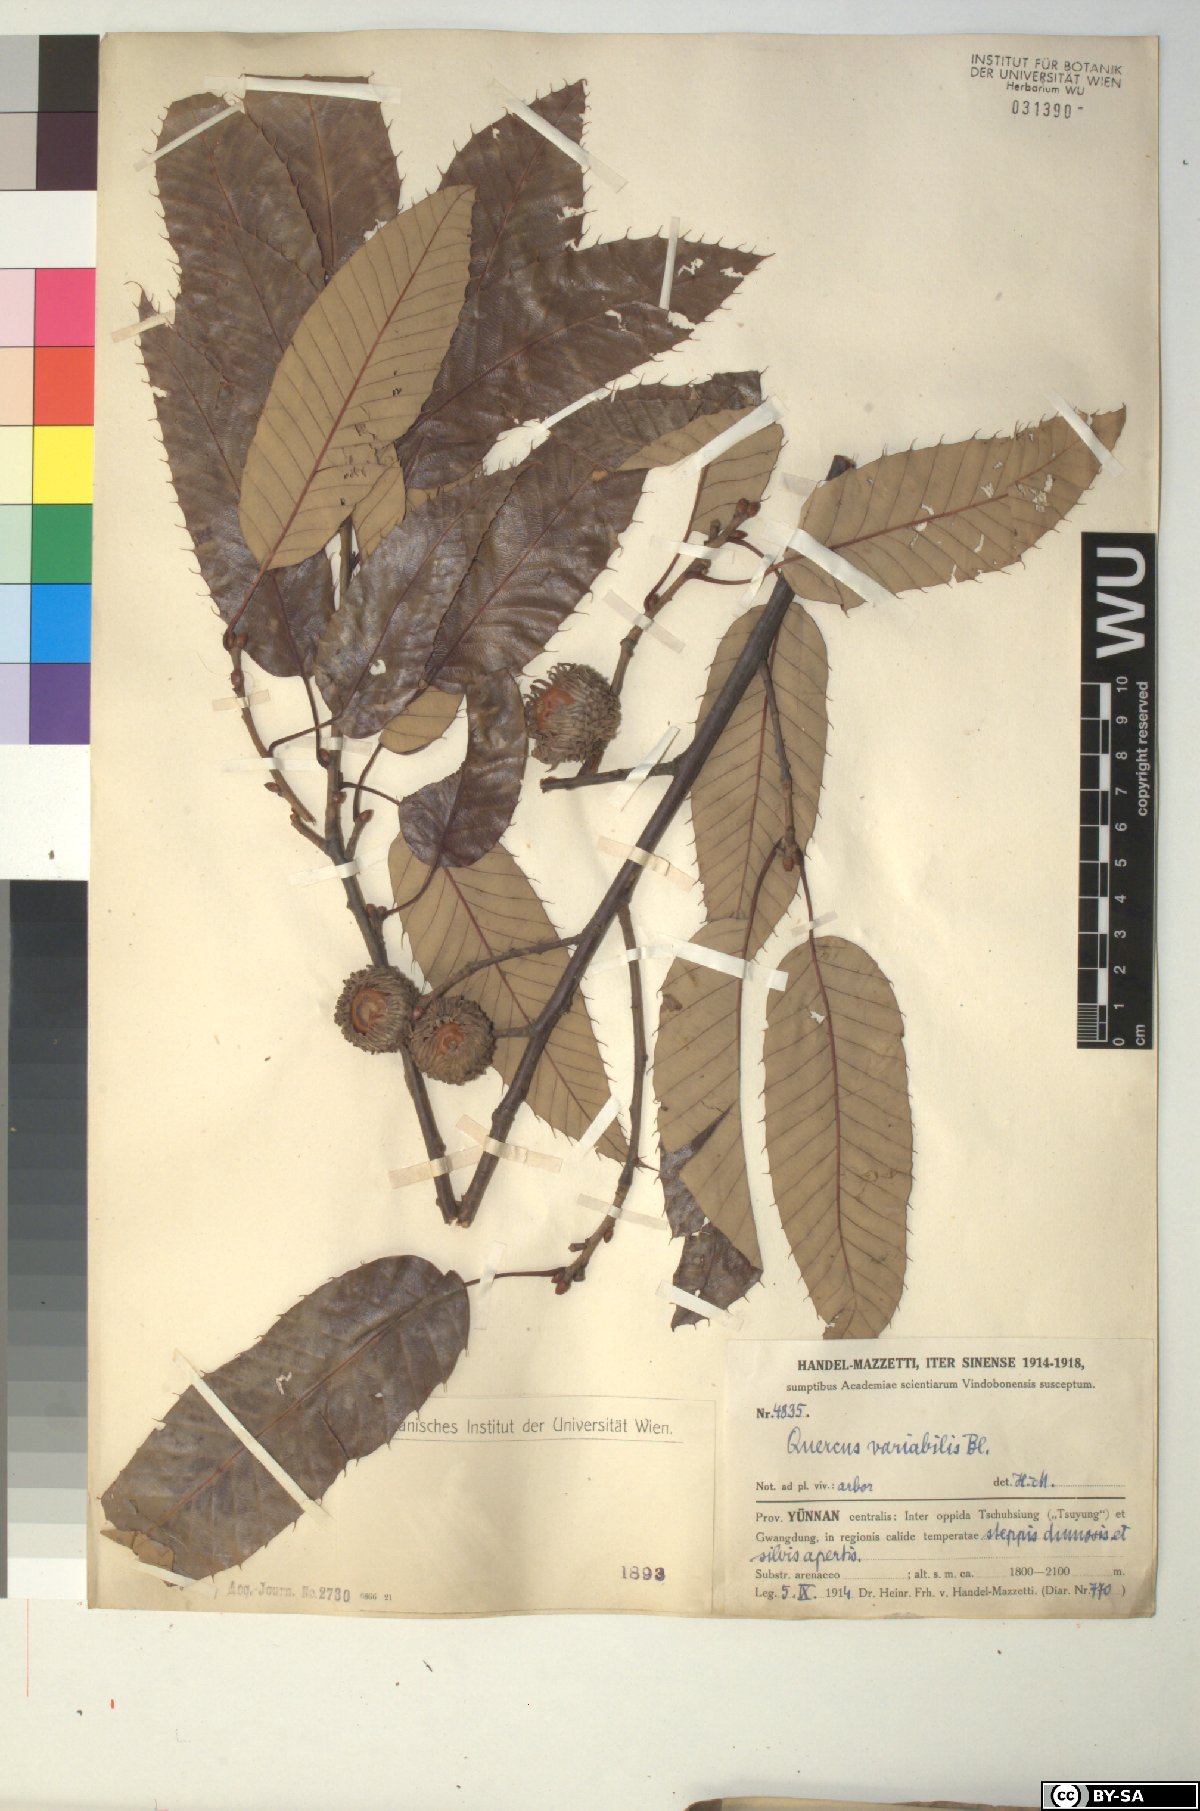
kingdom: Plantae
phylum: Tracheophyta
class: Magnoliopsida
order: Fagales
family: Fagaceae
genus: Quercus
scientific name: Quercus variabilis
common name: Chinese cork oak
